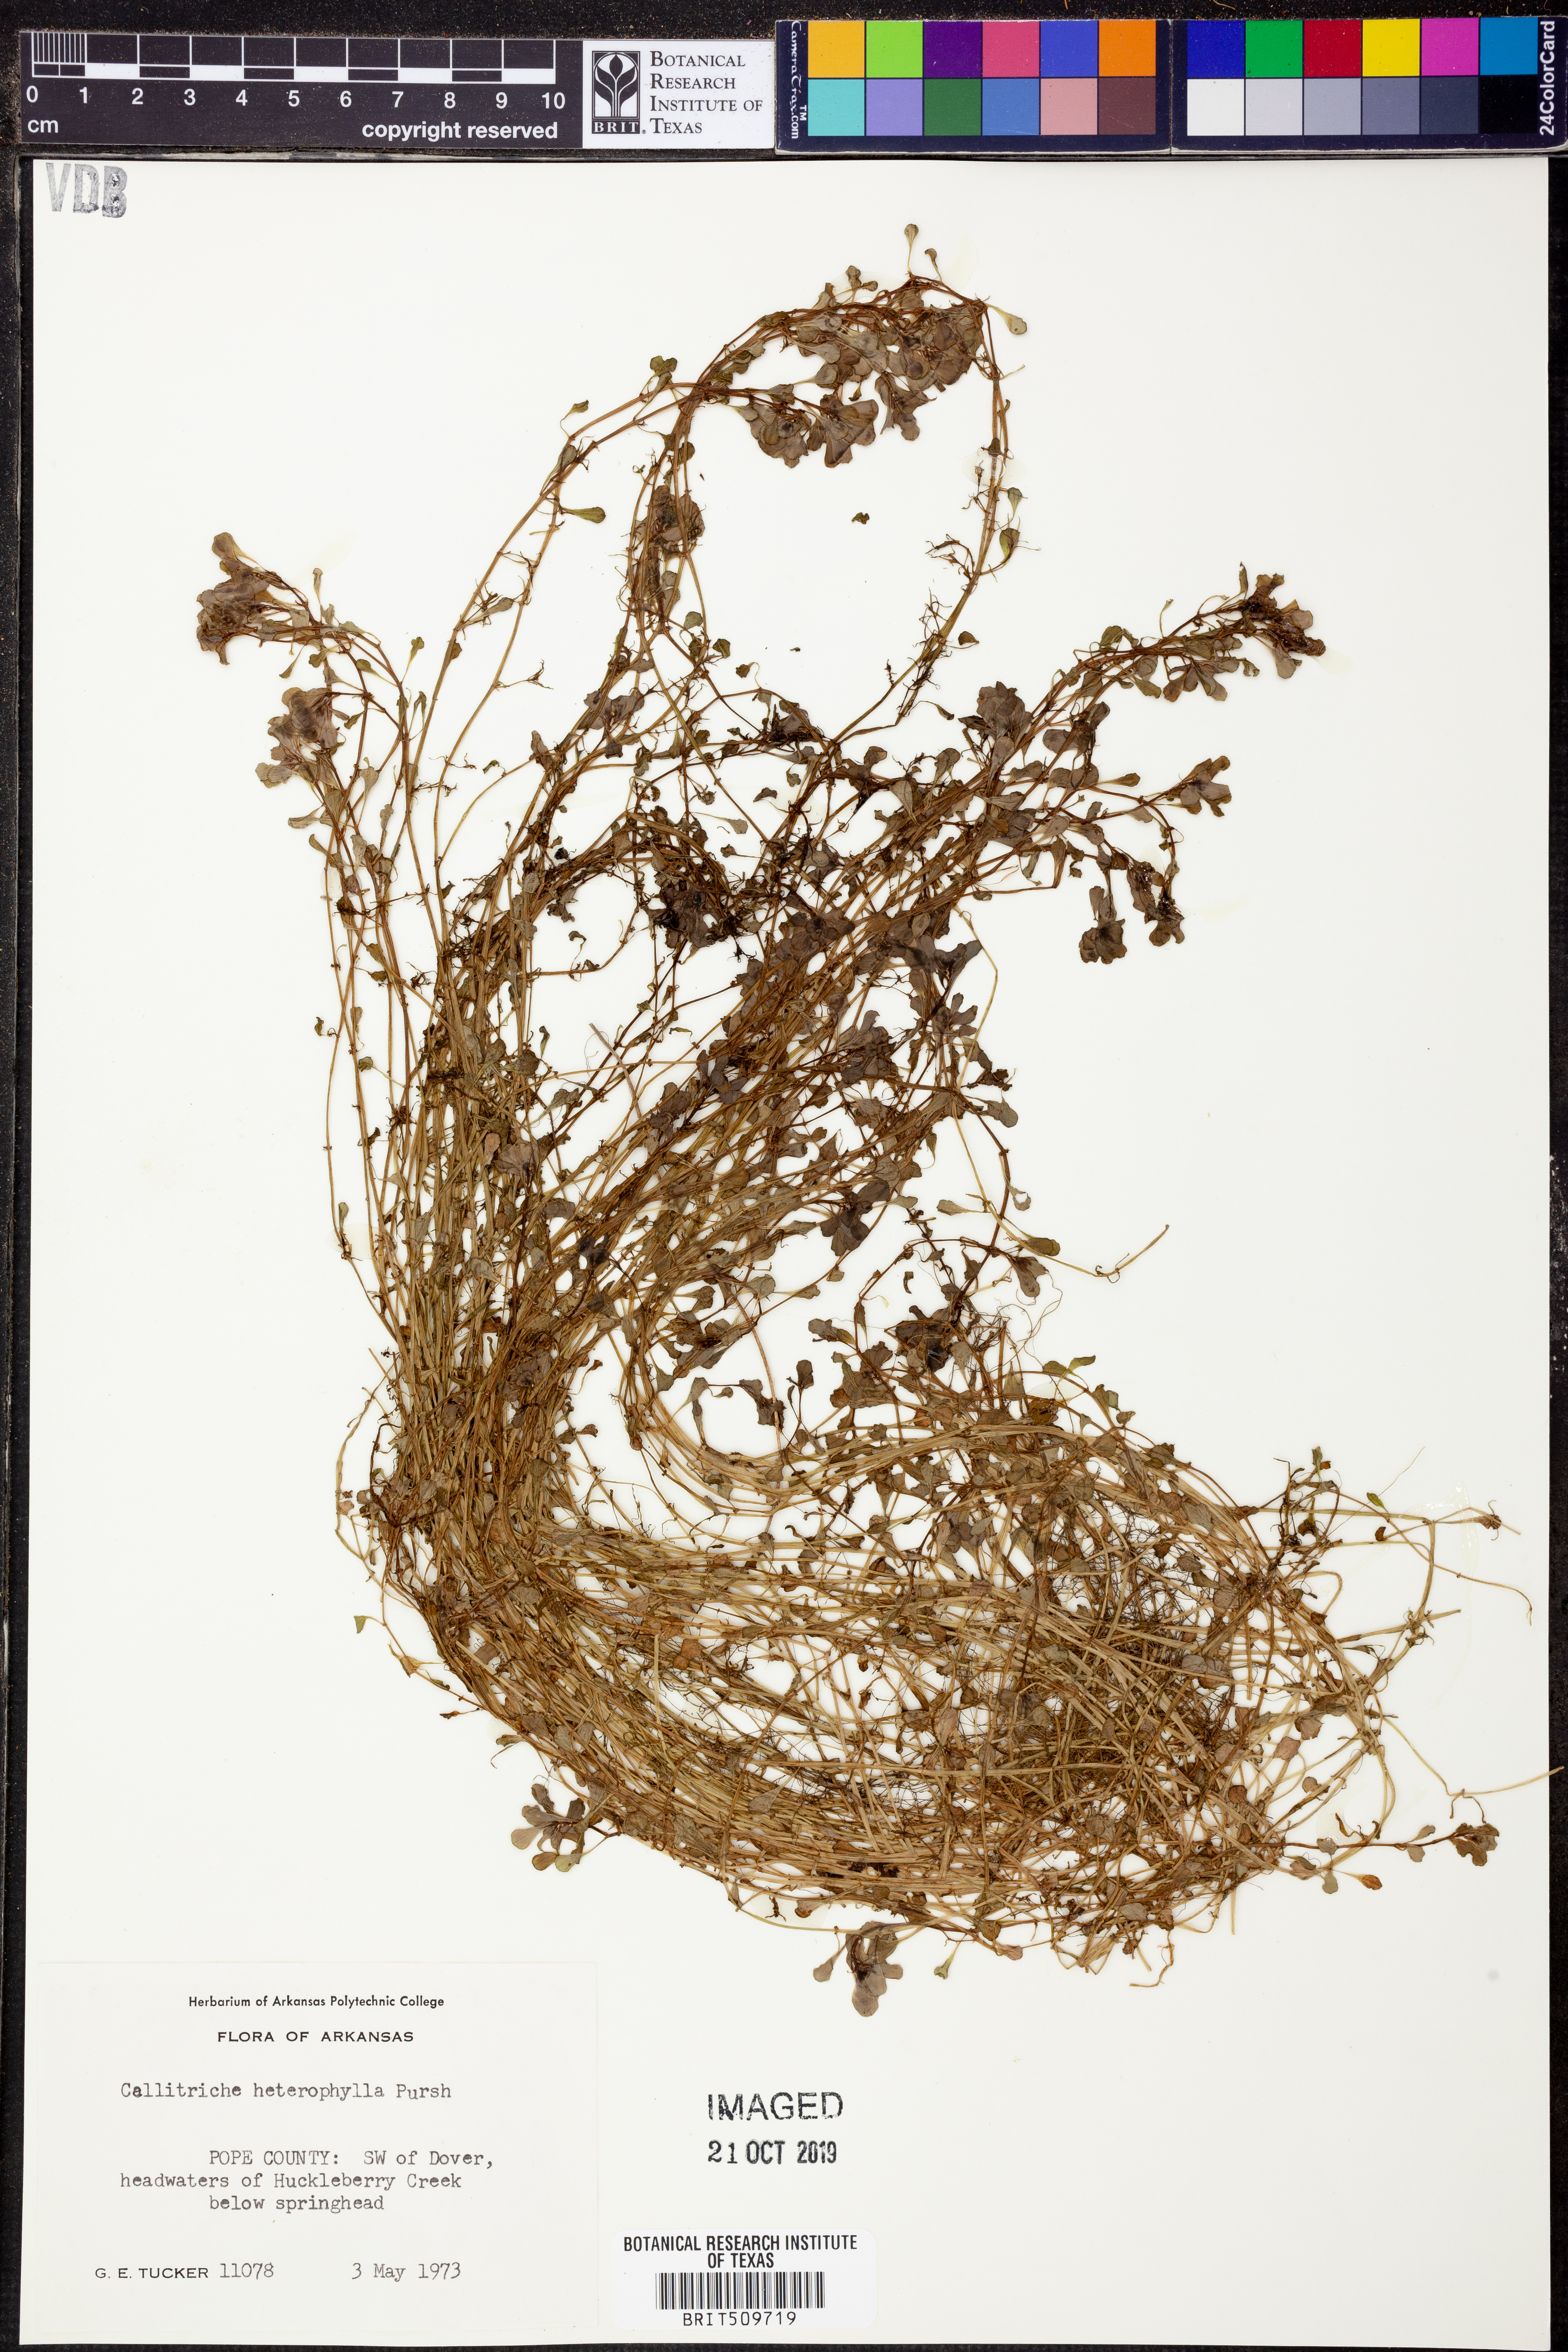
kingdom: Plantae
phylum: Tracheophyta
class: Magnoliopsida
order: Lamiales
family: Plantaginaceae
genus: Callitriche
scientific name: Callitriche heterophylla
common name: Two-headed water-starwort
